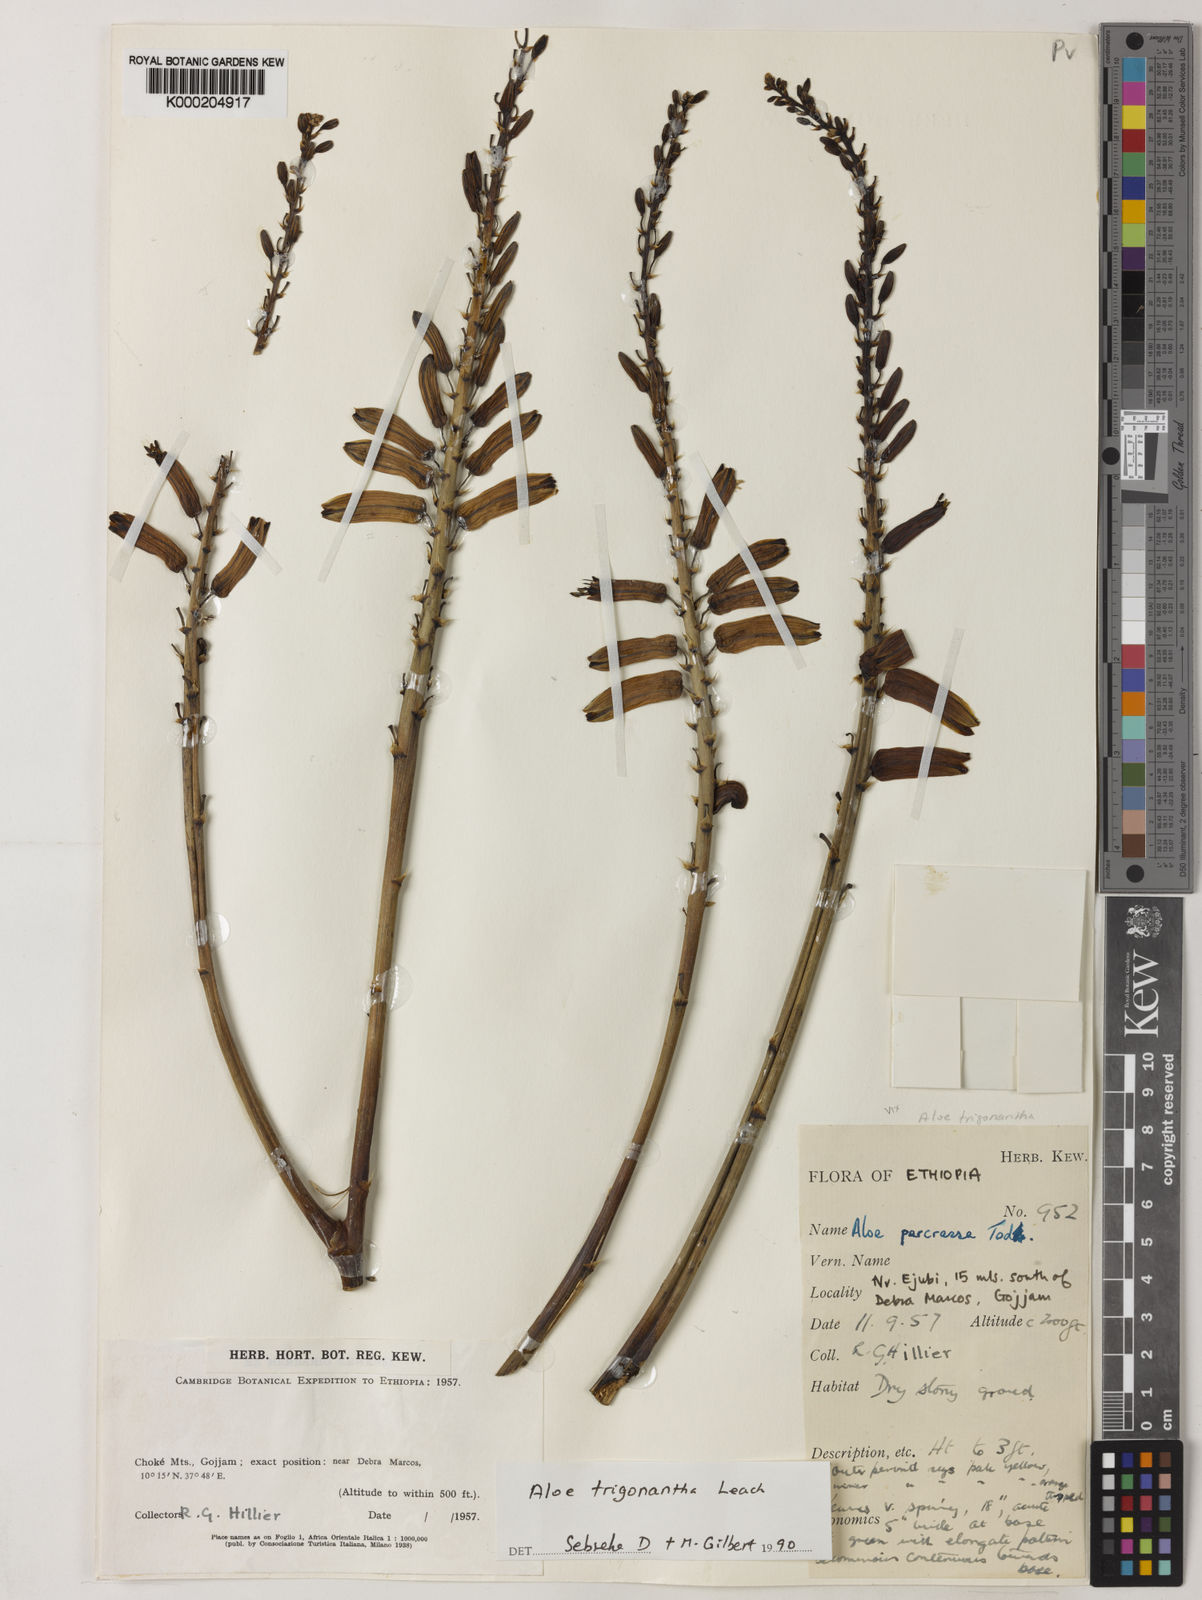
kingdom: Plantae
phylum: Tracheophyta
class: Liliopsida
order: Asparagales
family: Asphodelaceae
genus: Aloe
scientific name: Aloe trigonantha
